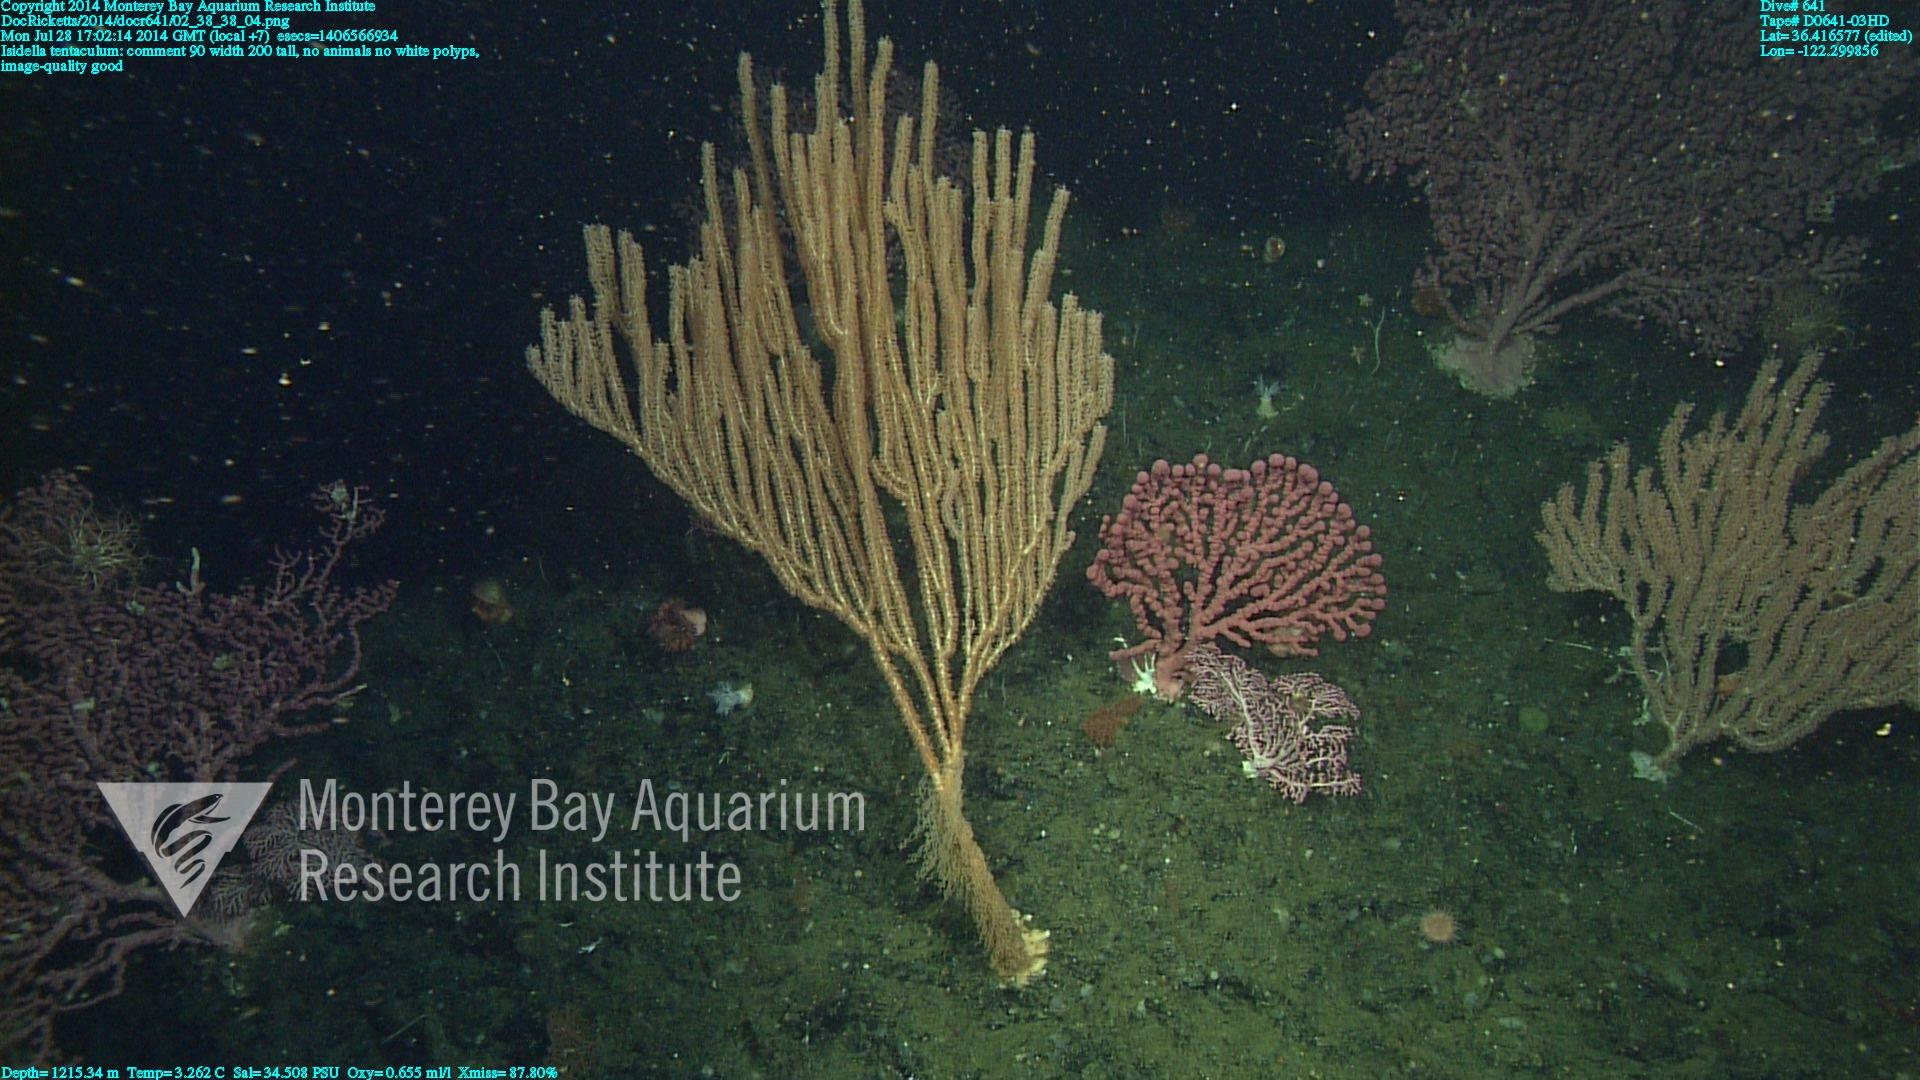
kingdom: Animalia
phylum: Cnidaria
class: Anthozoa
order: Scleralcyonacea
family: Keratoisididae
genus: Isidella
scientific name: Isidella tentaculum
